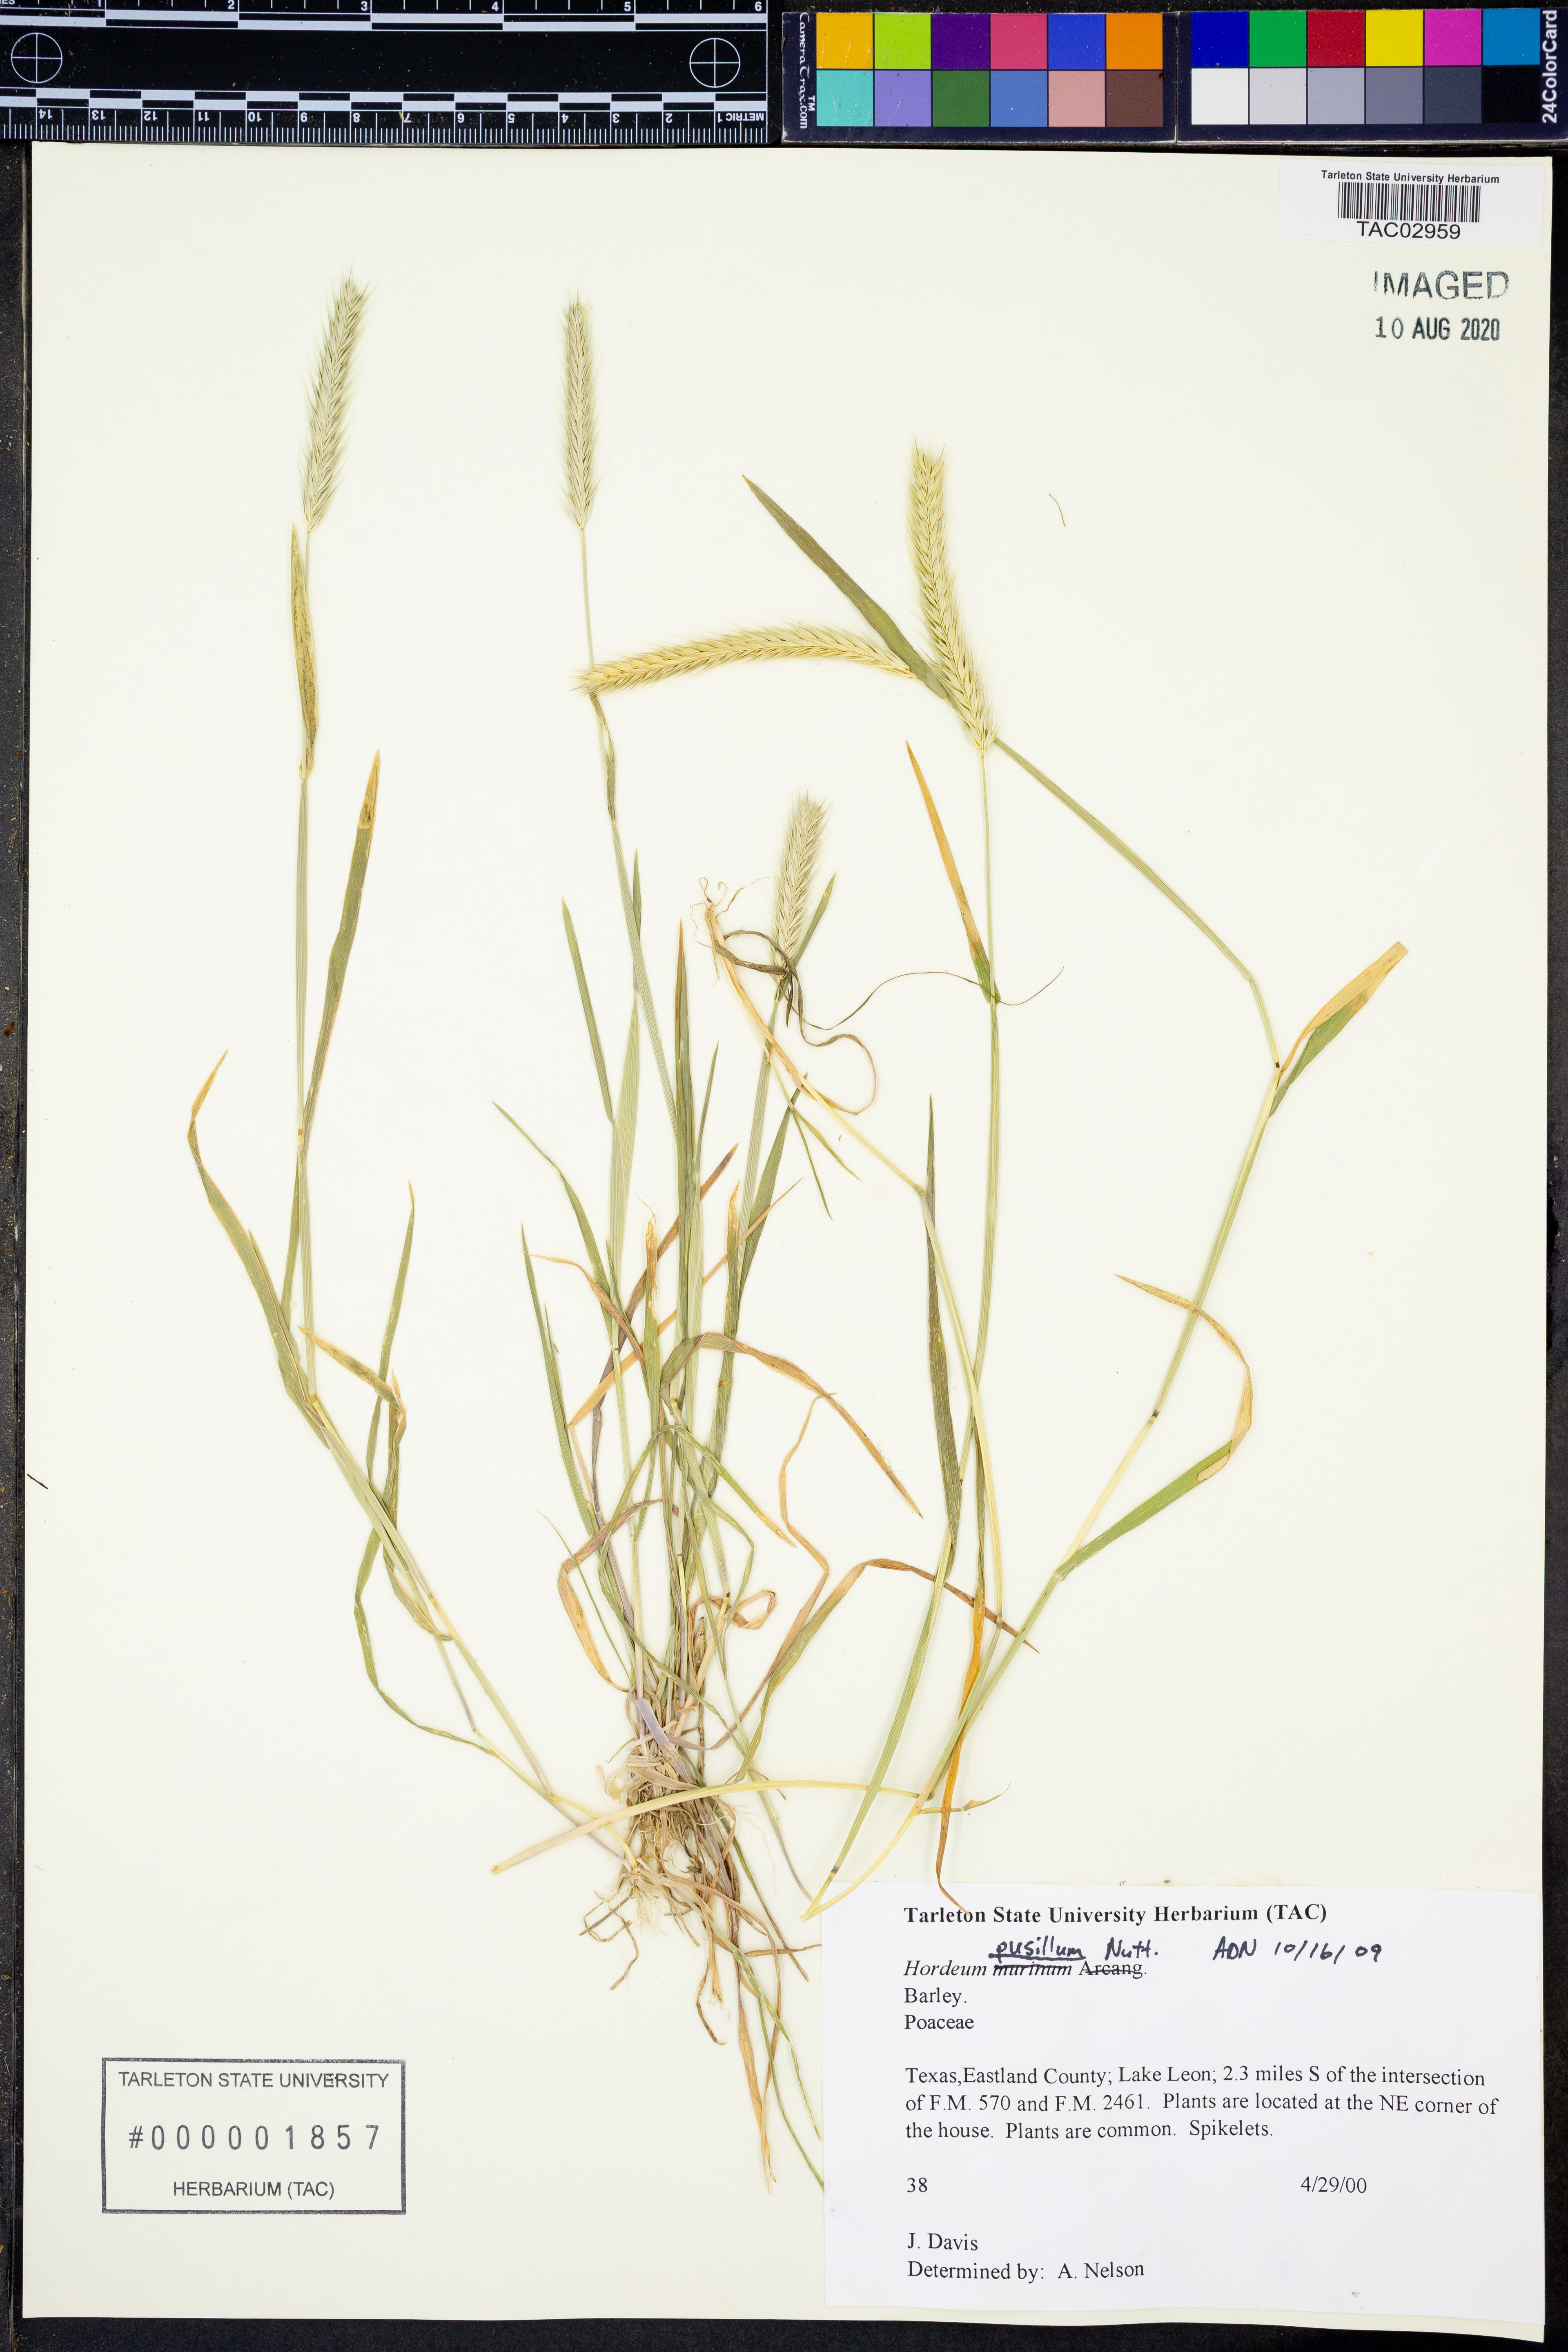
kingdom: Plantae
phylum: Tracheophyta
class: Liliopsida
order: Poales
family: Poaceae
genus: Hordeum
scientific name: Hordeum pusillum
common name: Little barley
